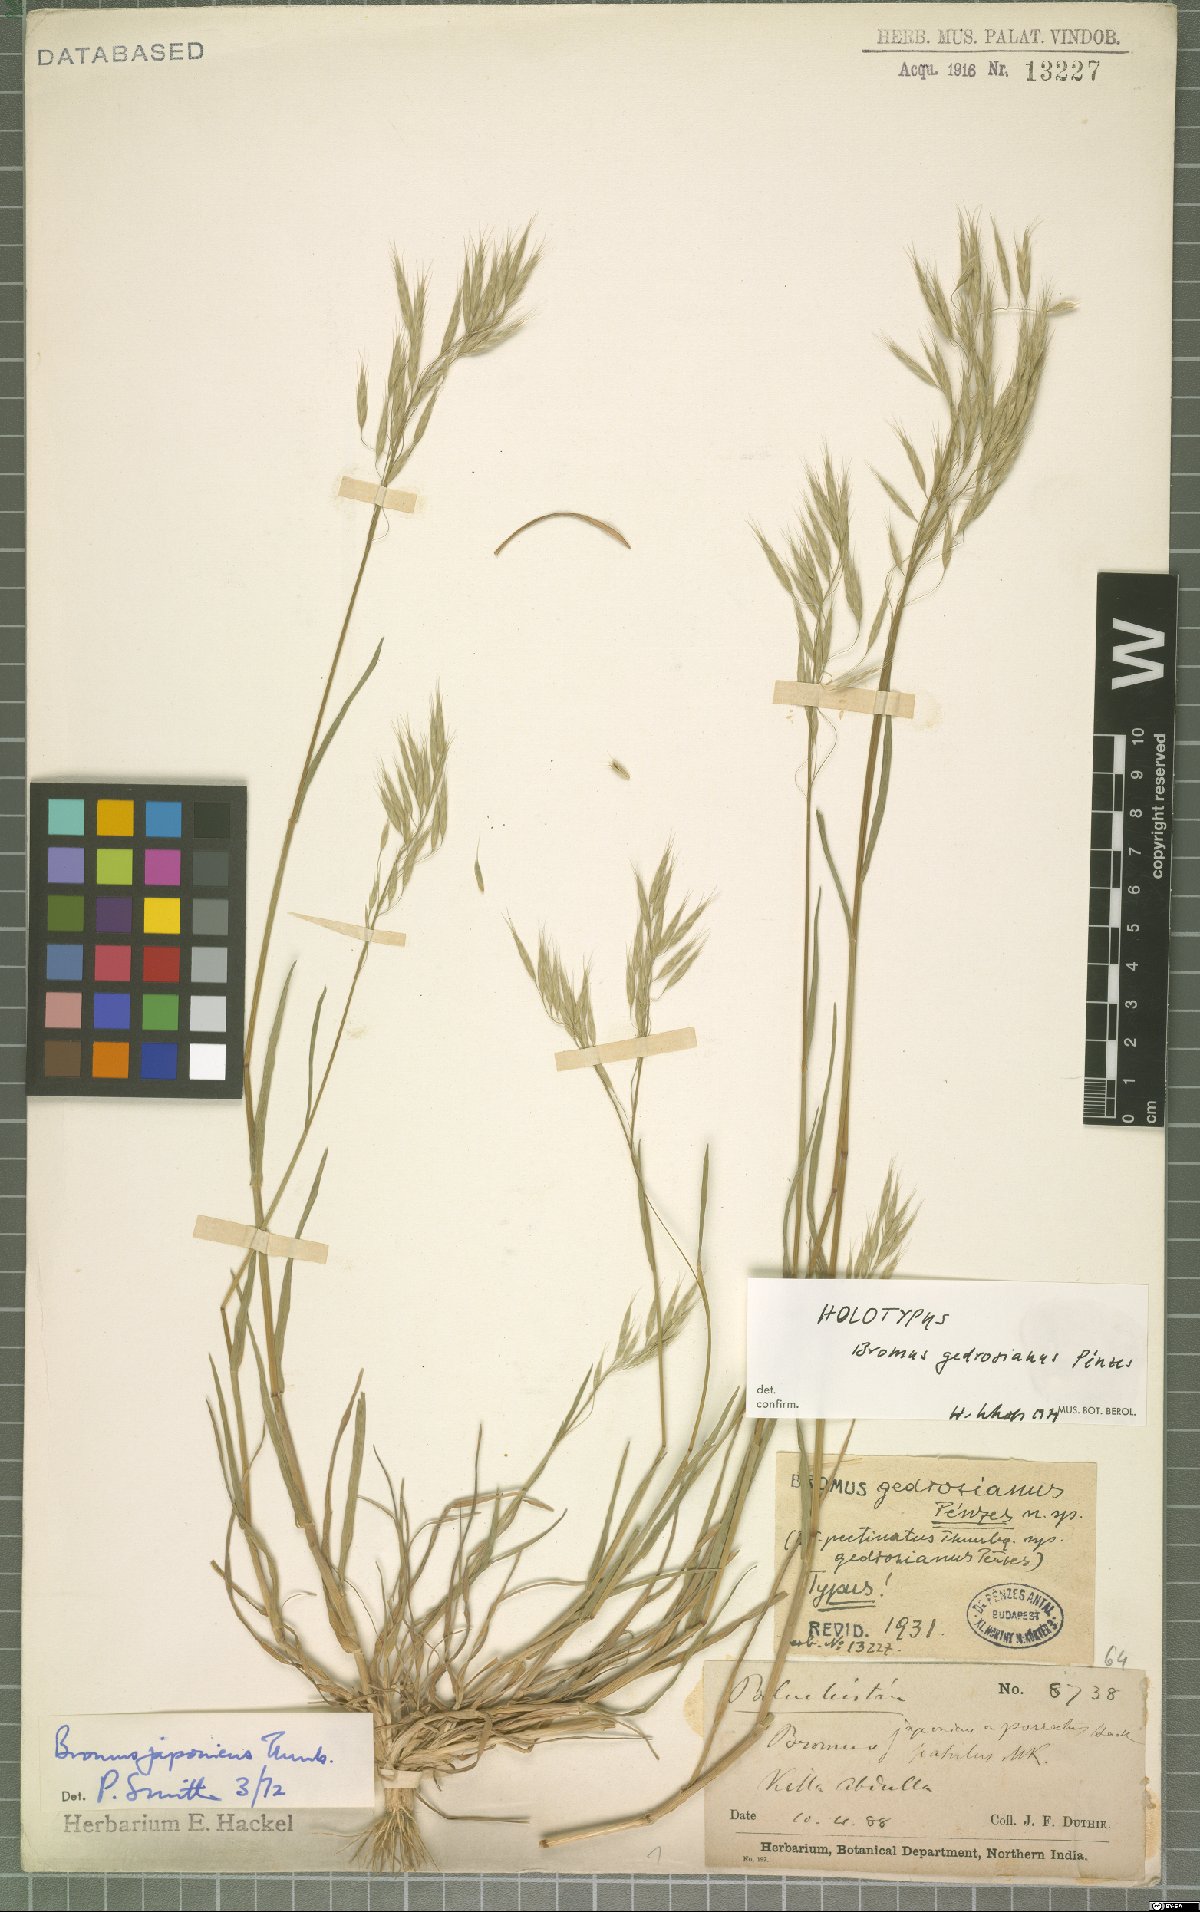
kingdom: Plantae
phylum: Tracheophyta
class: Liliopsida
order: Poales
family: Poaceae
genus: Bromus
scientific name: Bromus japonicus
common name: Japanese brome
